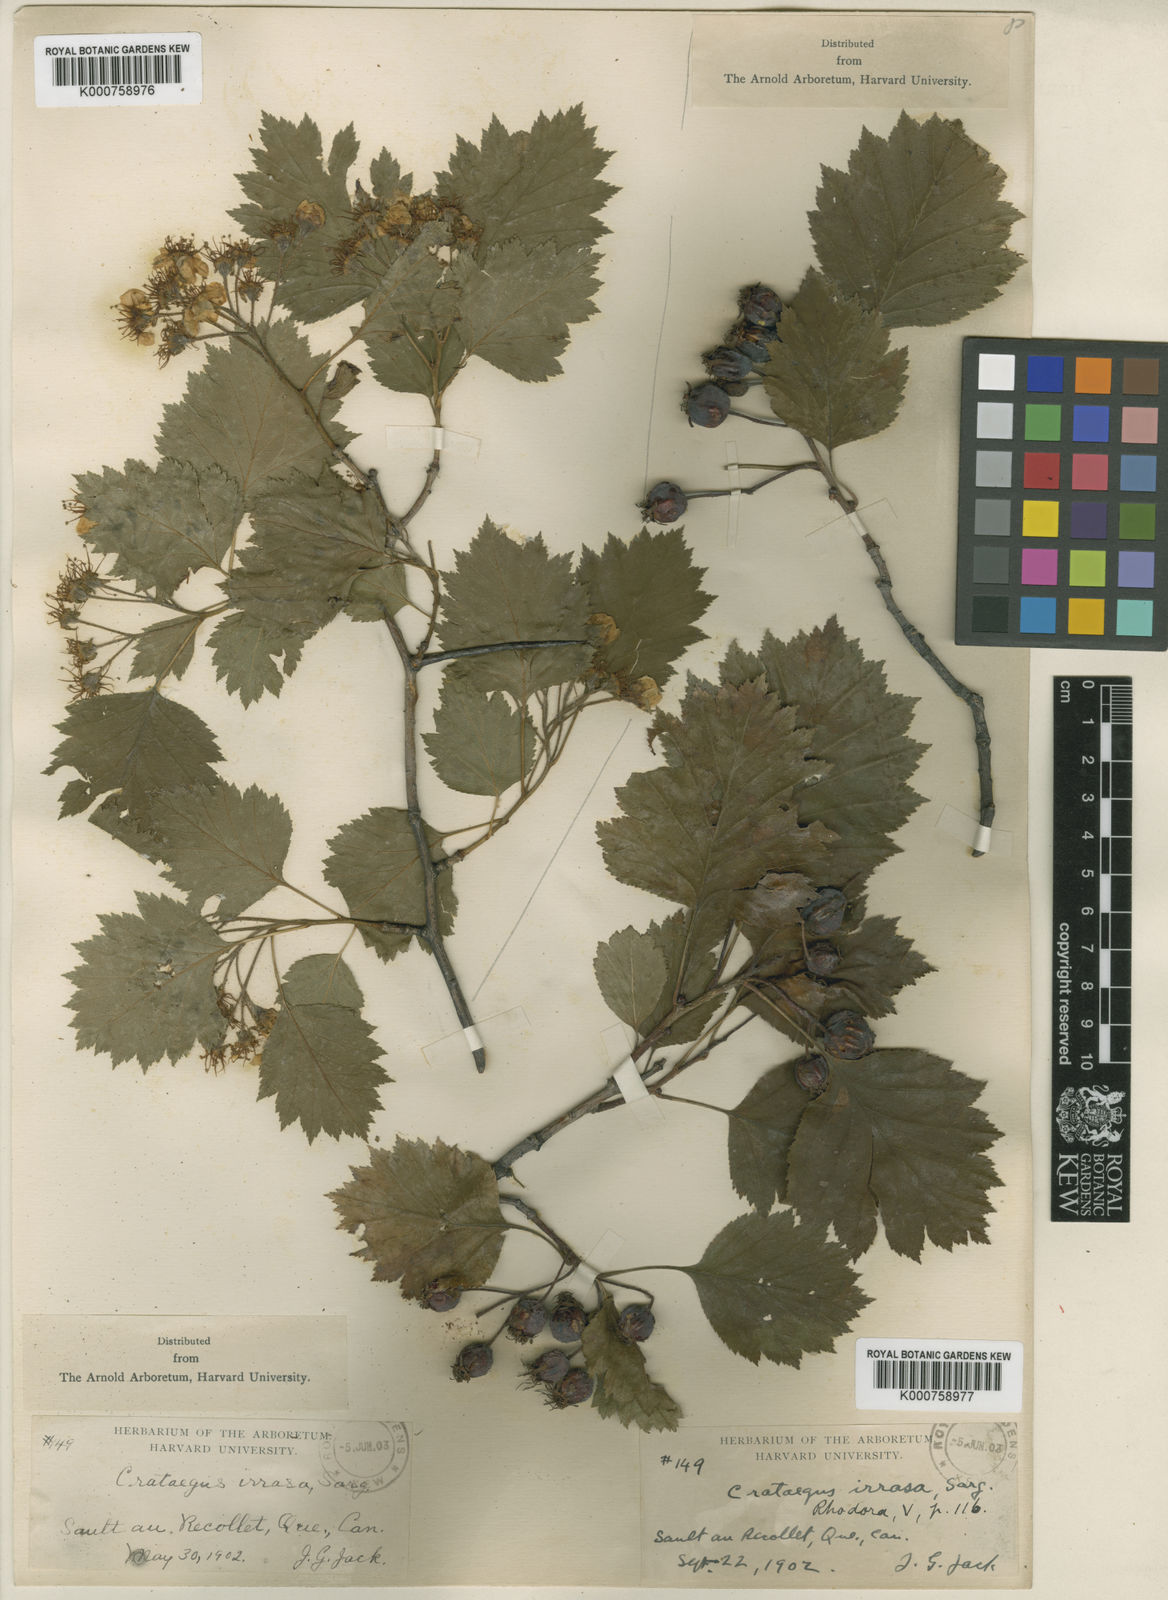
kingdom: Plantae
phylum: Tracheophyta
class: Magnoliopsida
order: Rosales
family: Rosaceae
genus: Crataegus
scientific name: Crataegus irrasa
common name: Unshorn hawthorn
